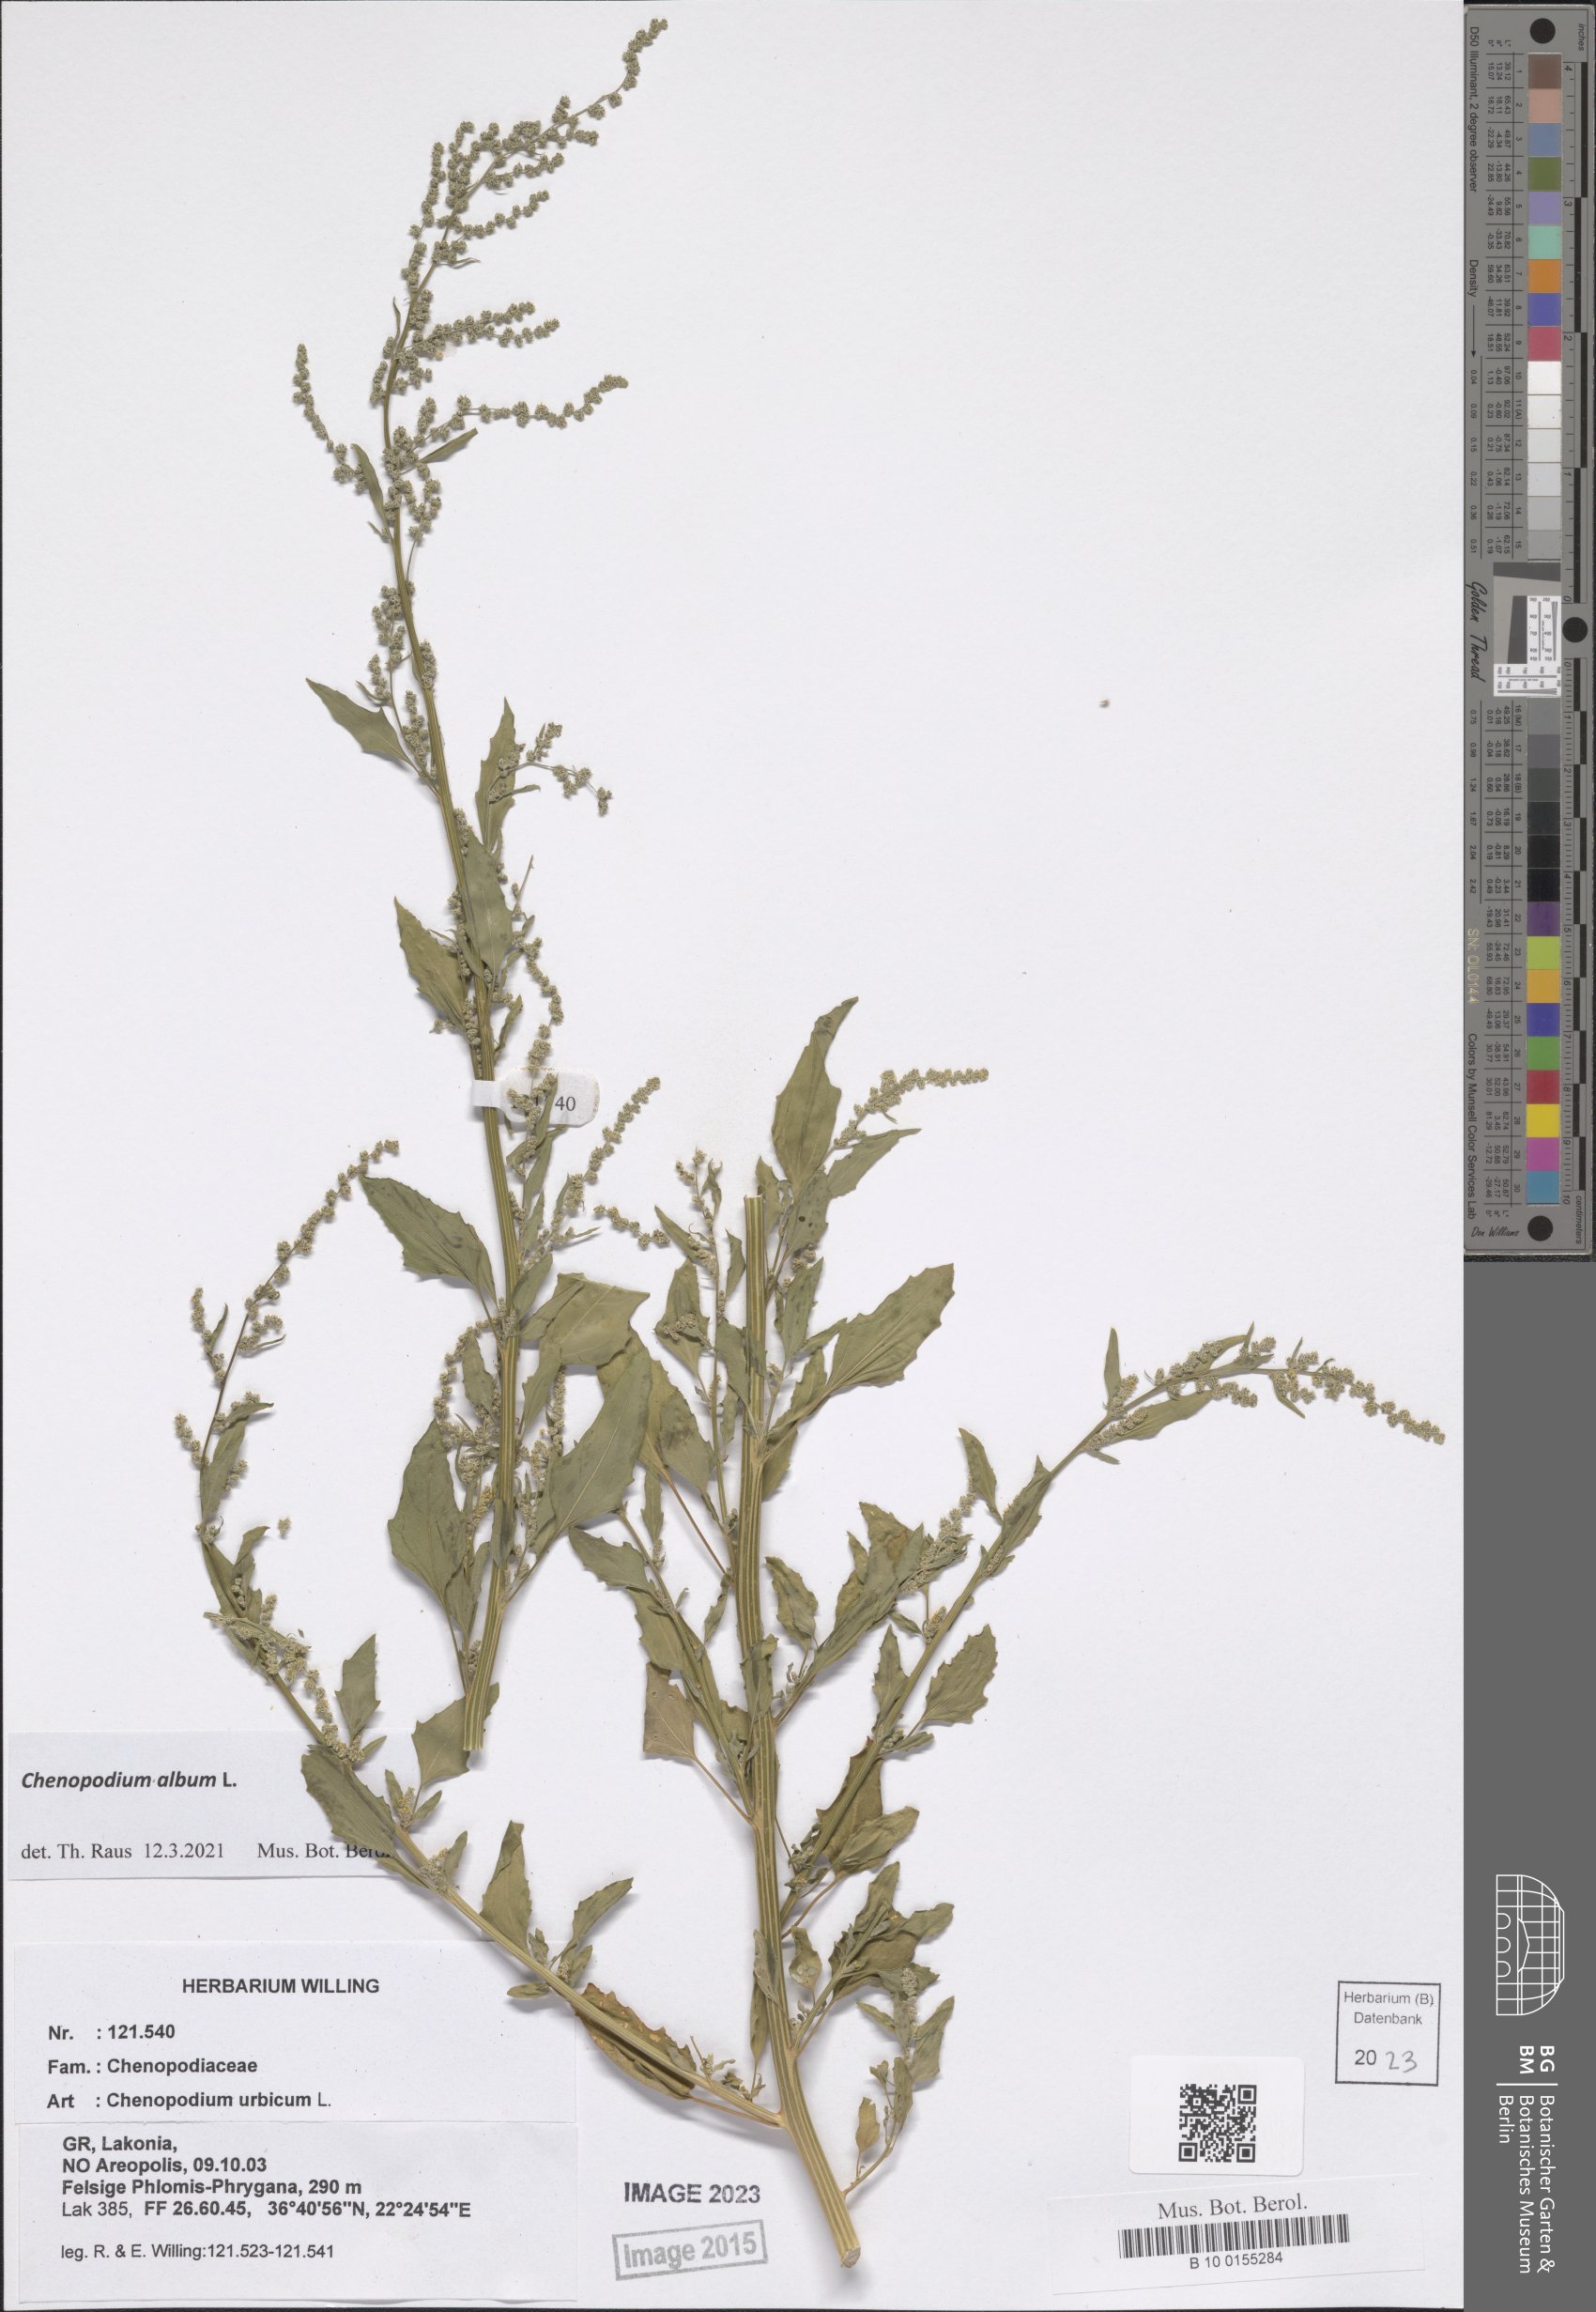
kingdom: Plantae
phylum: Tracheophyta
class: Magnoliopsida
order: Caryophyllales
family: Amaranthaceae
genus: Chenopodium
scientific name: Chenopodium album
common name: Fat-hen
